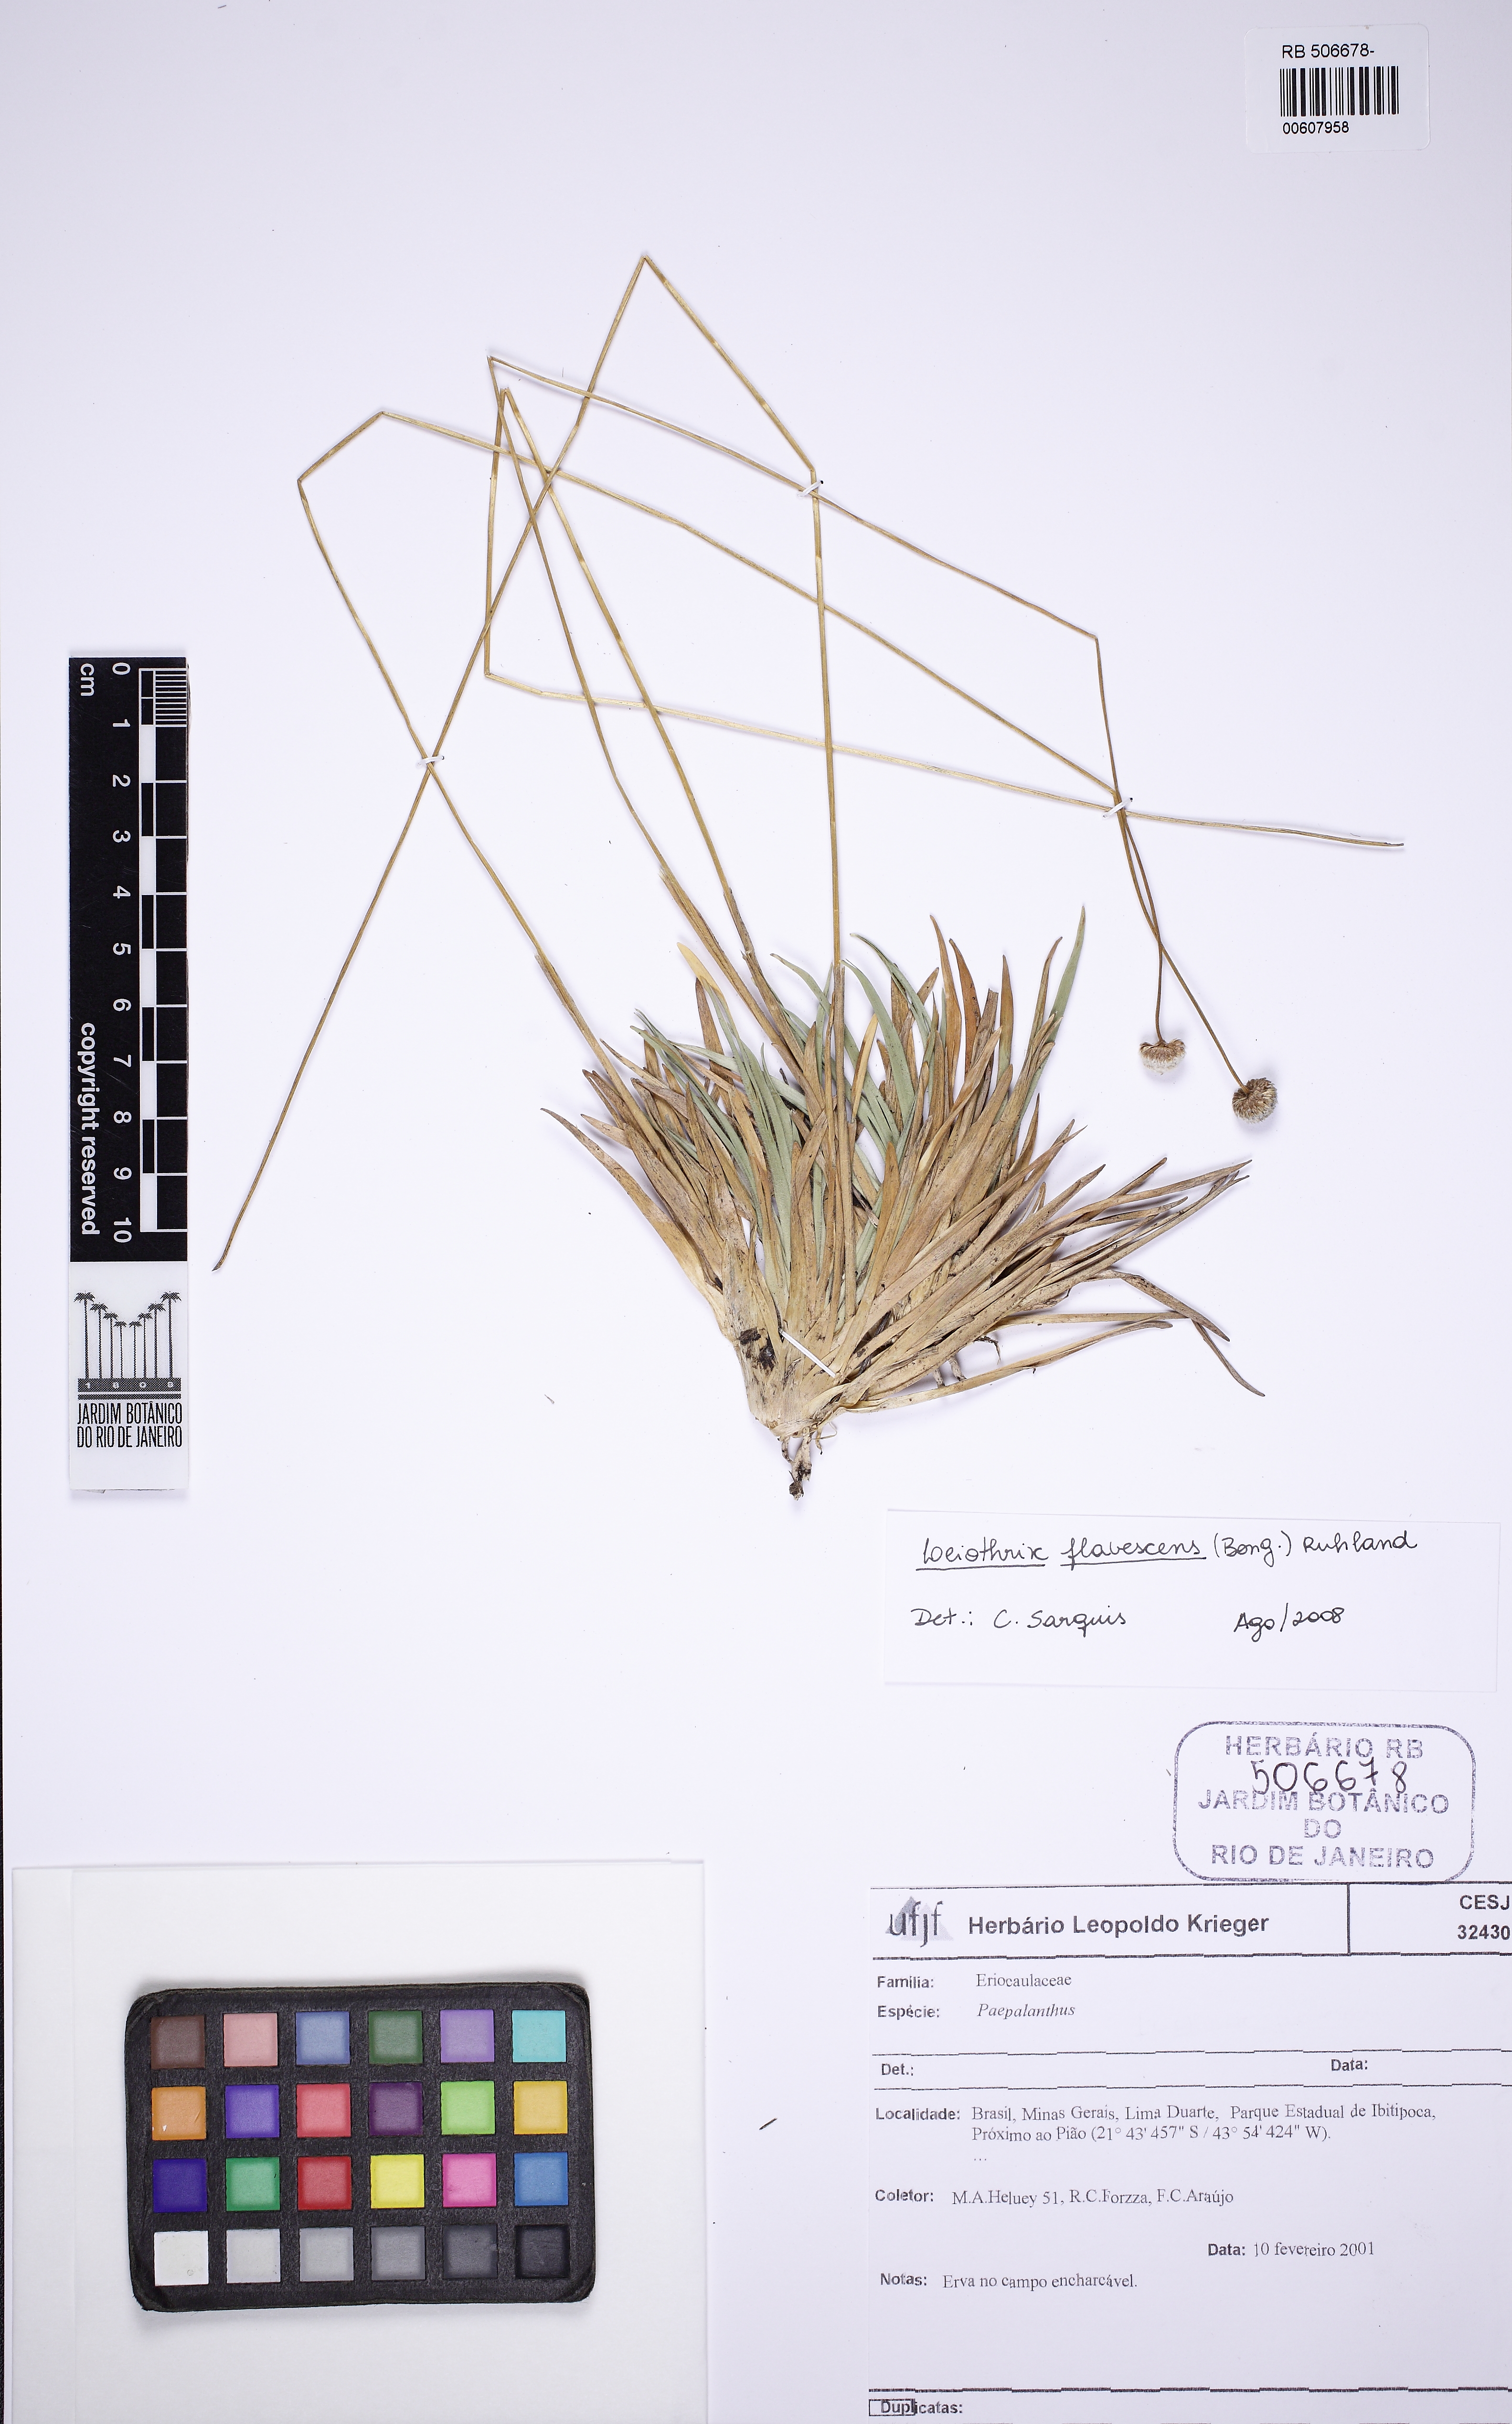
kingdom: Plantae
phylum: Tracheophyta
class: Liliopsida
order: Poales
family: Eriocaulaceae
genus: Leiothrix
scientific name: Leiothrix flavescens
